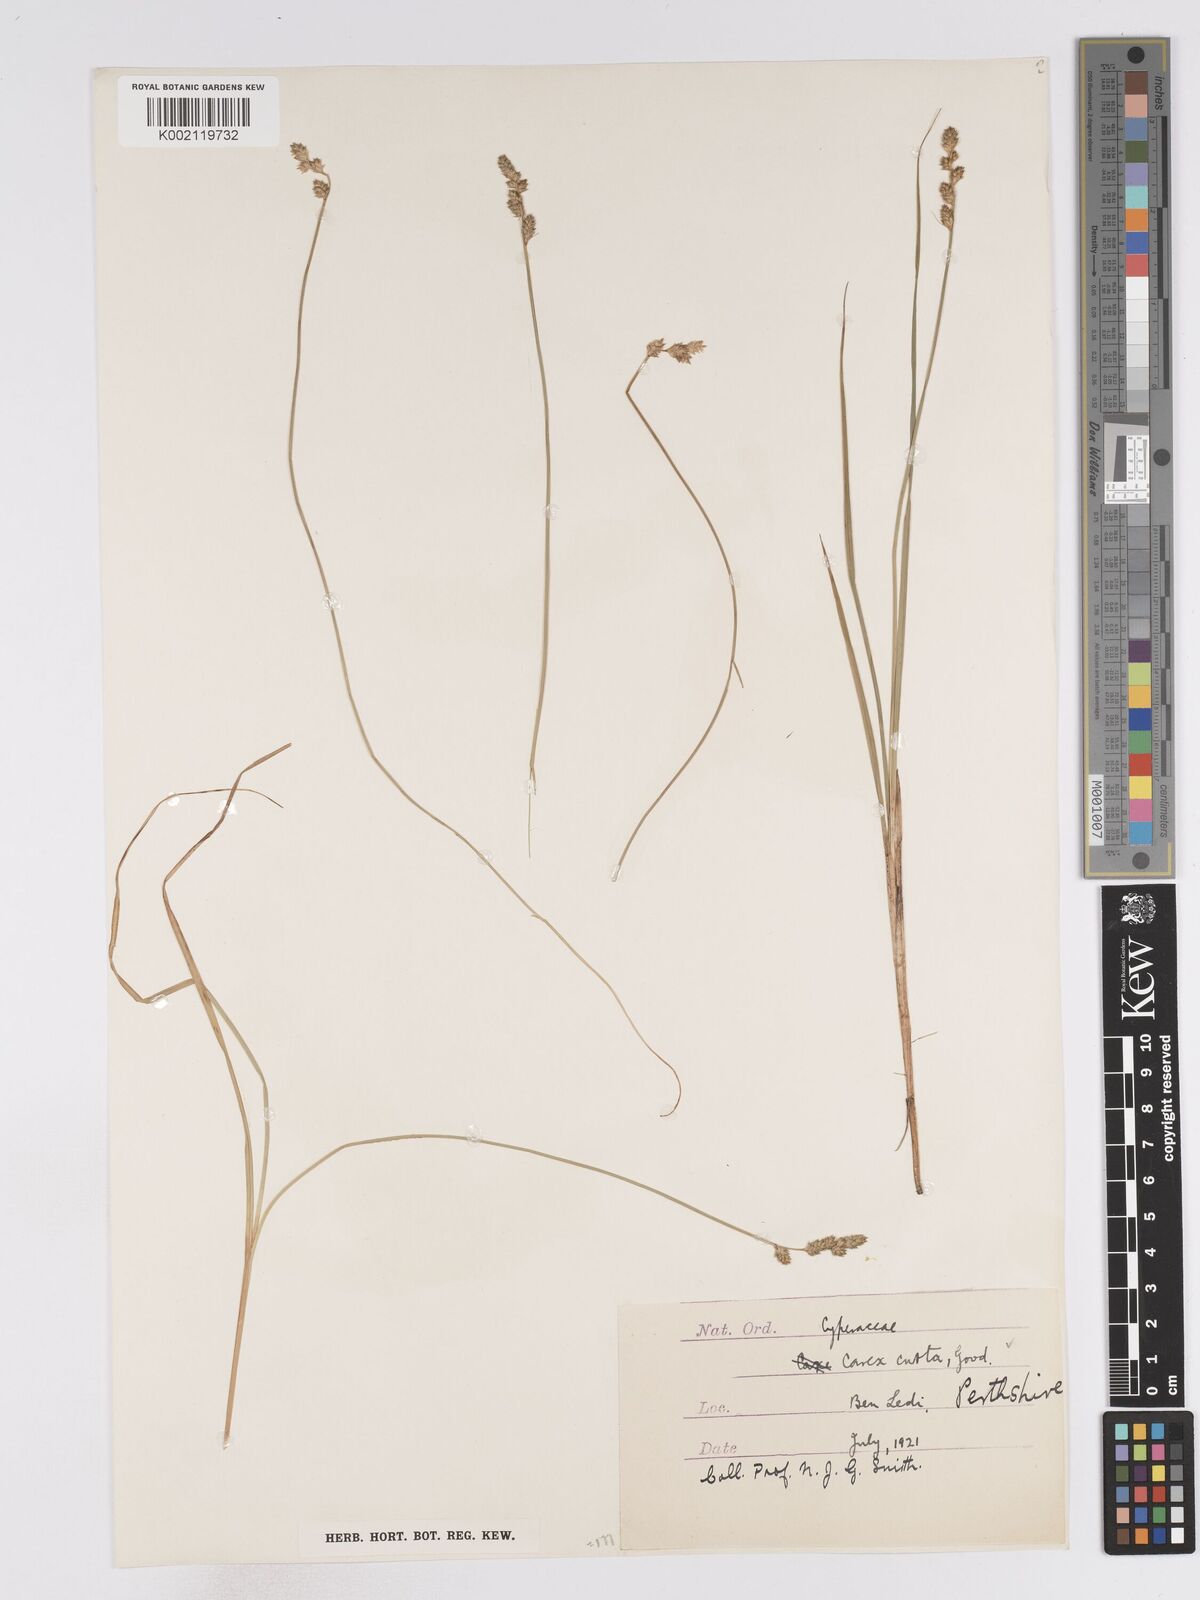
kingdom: Plantae
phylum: Tracheophyta
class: Liliopsida
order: Poales
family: Cyperaceae
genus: Carex
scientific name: Carex curta
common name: White sedge
